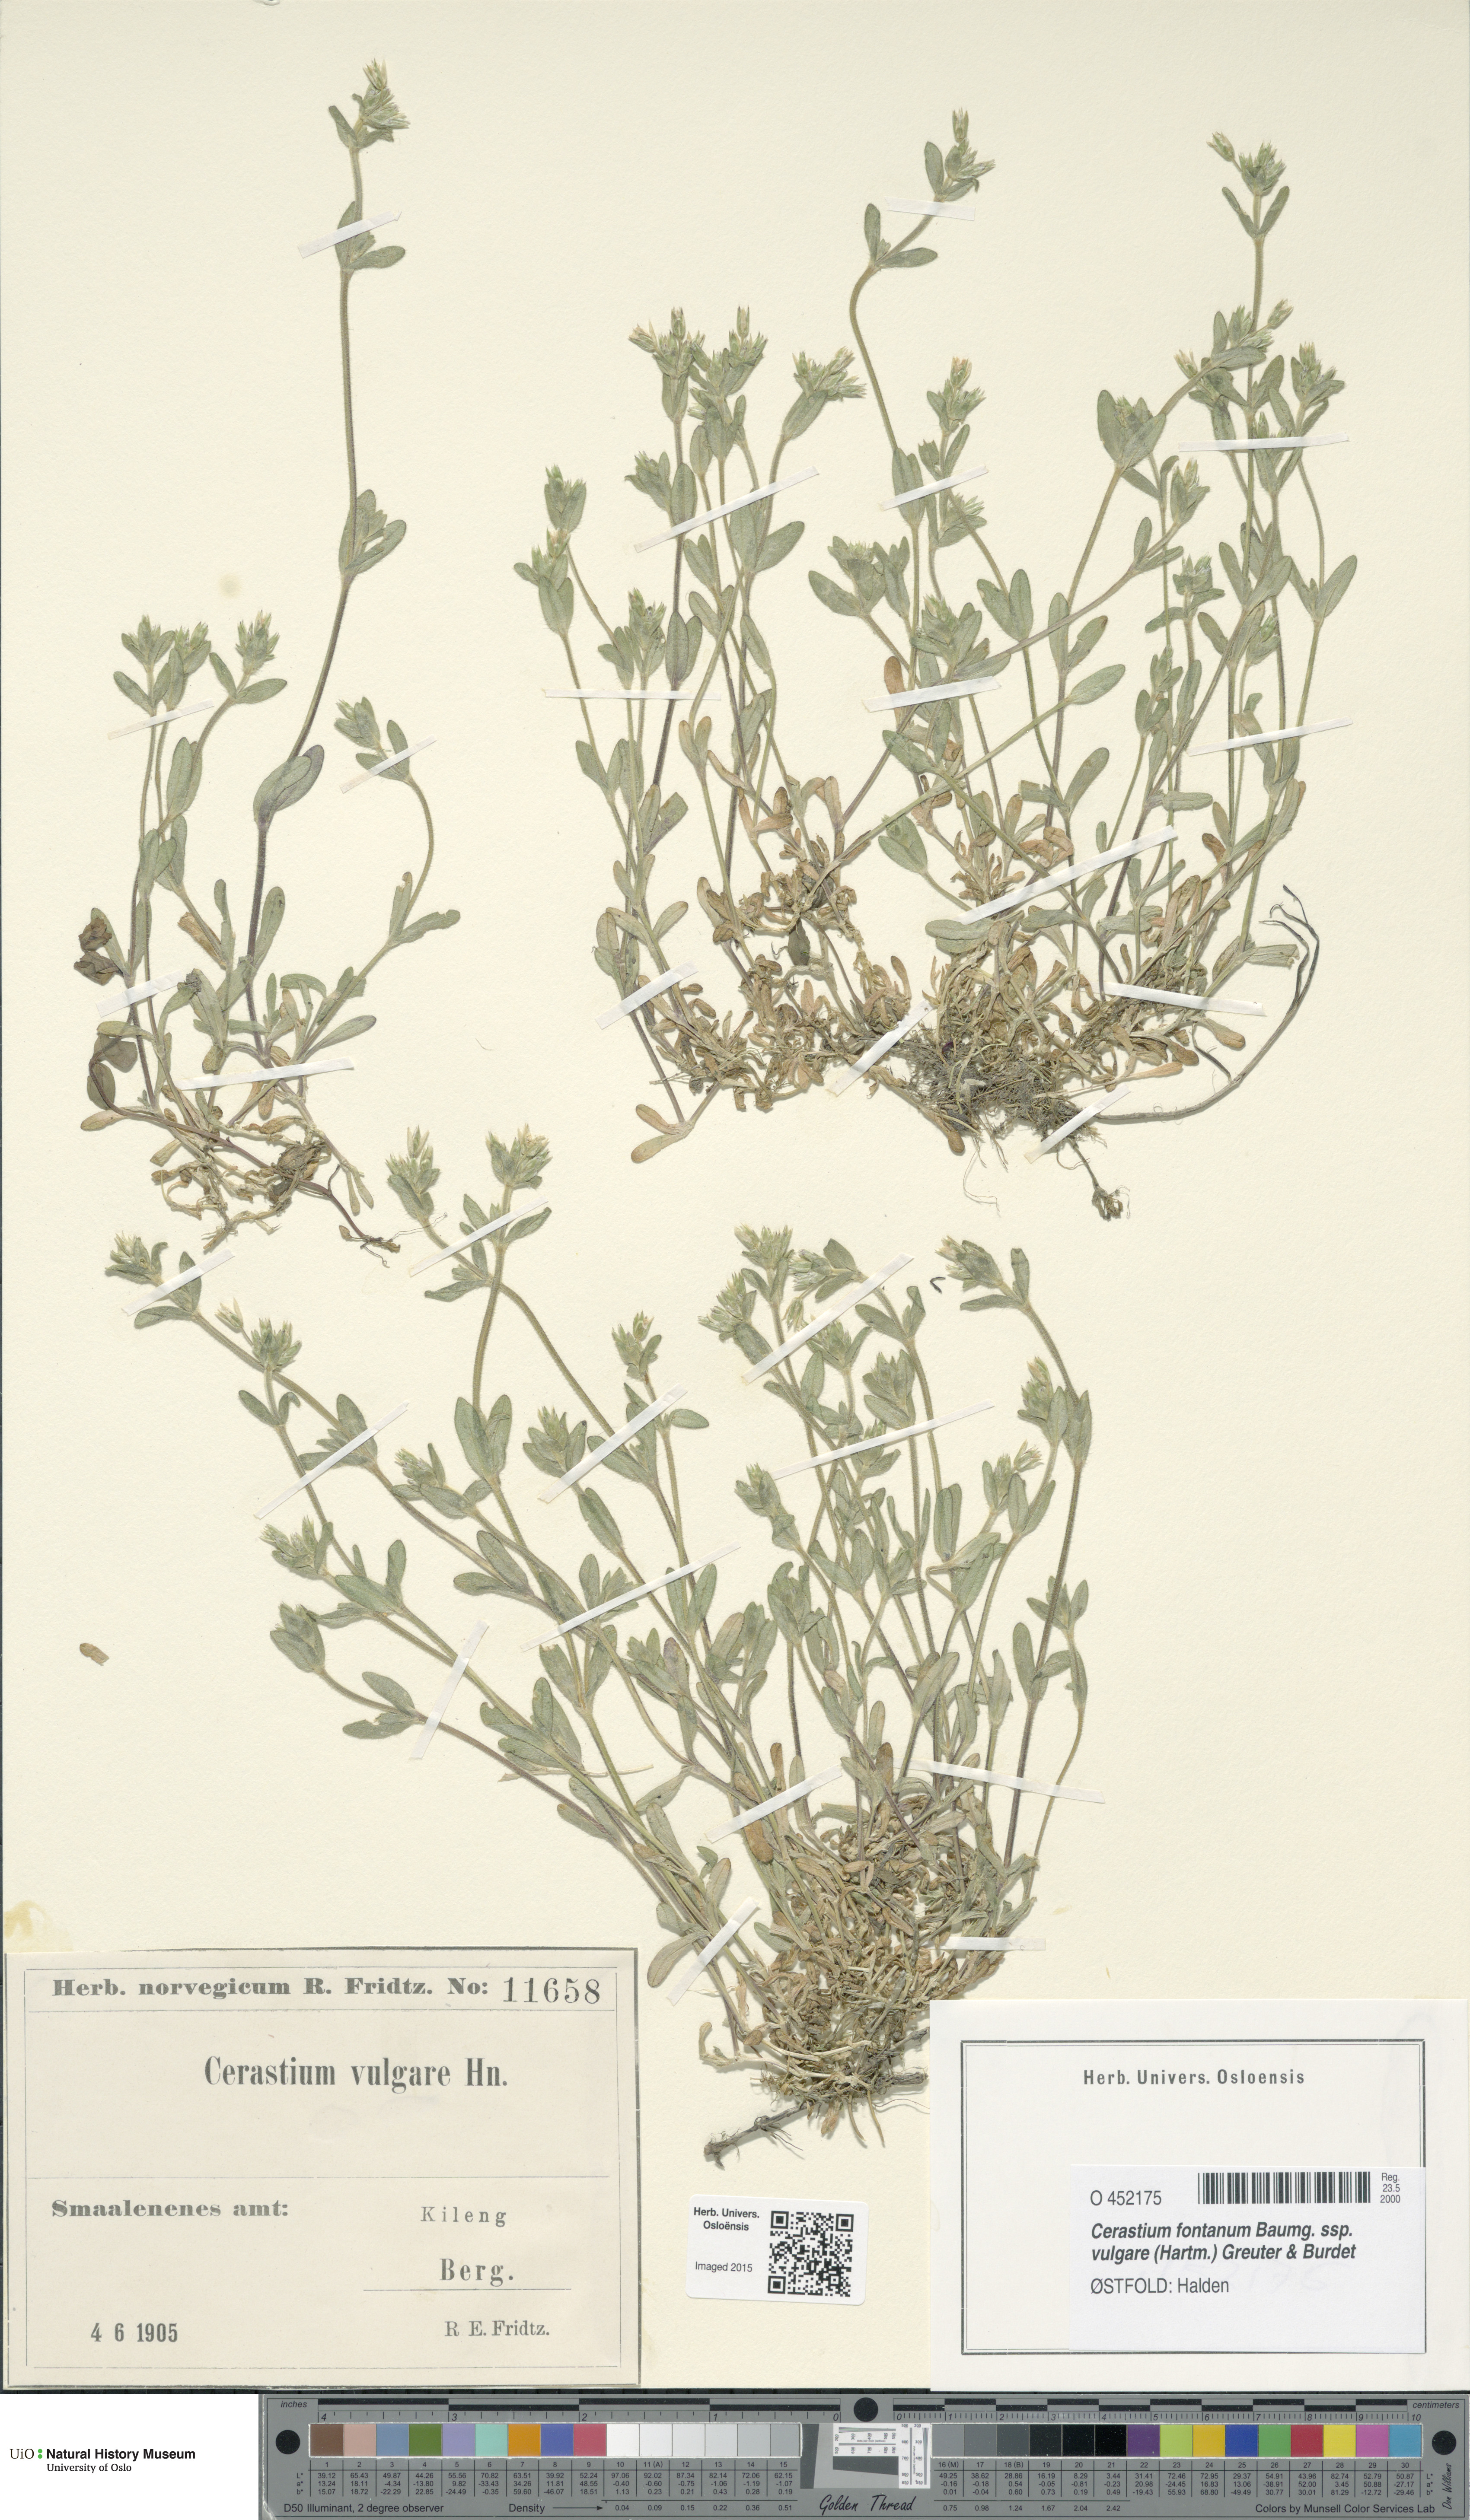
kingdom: Plantae
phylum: Tracheophyta
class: Magnoliopsida
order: Caryophyllales
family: Caryophyllaceae
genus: Cerastium
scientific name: Cerastium holosteoides
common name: Big chickweed
